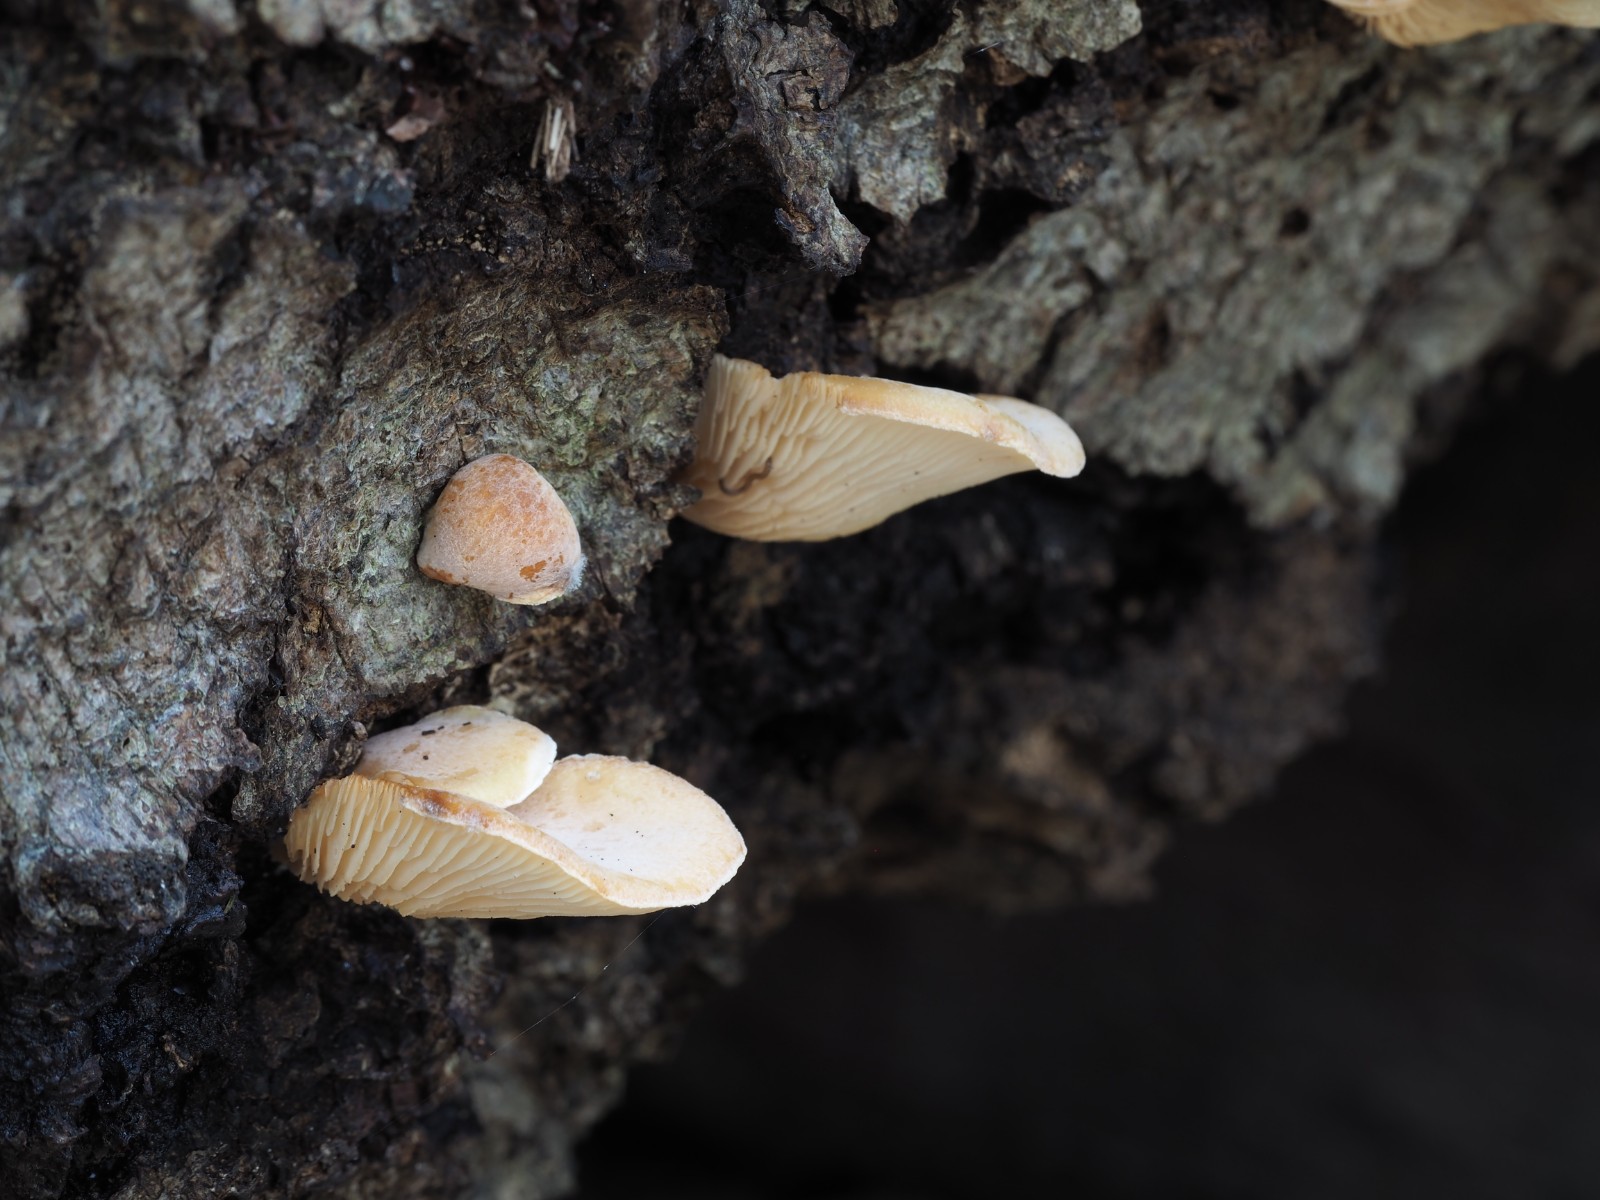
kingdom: Fungi
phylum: Basidiomycota
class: Agaricomycetes
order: Agaricales
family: Pleurotaceae
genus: Hohenbuehelia
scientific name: Hohenbuehelia auriscalpium
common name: spatel-filthat
